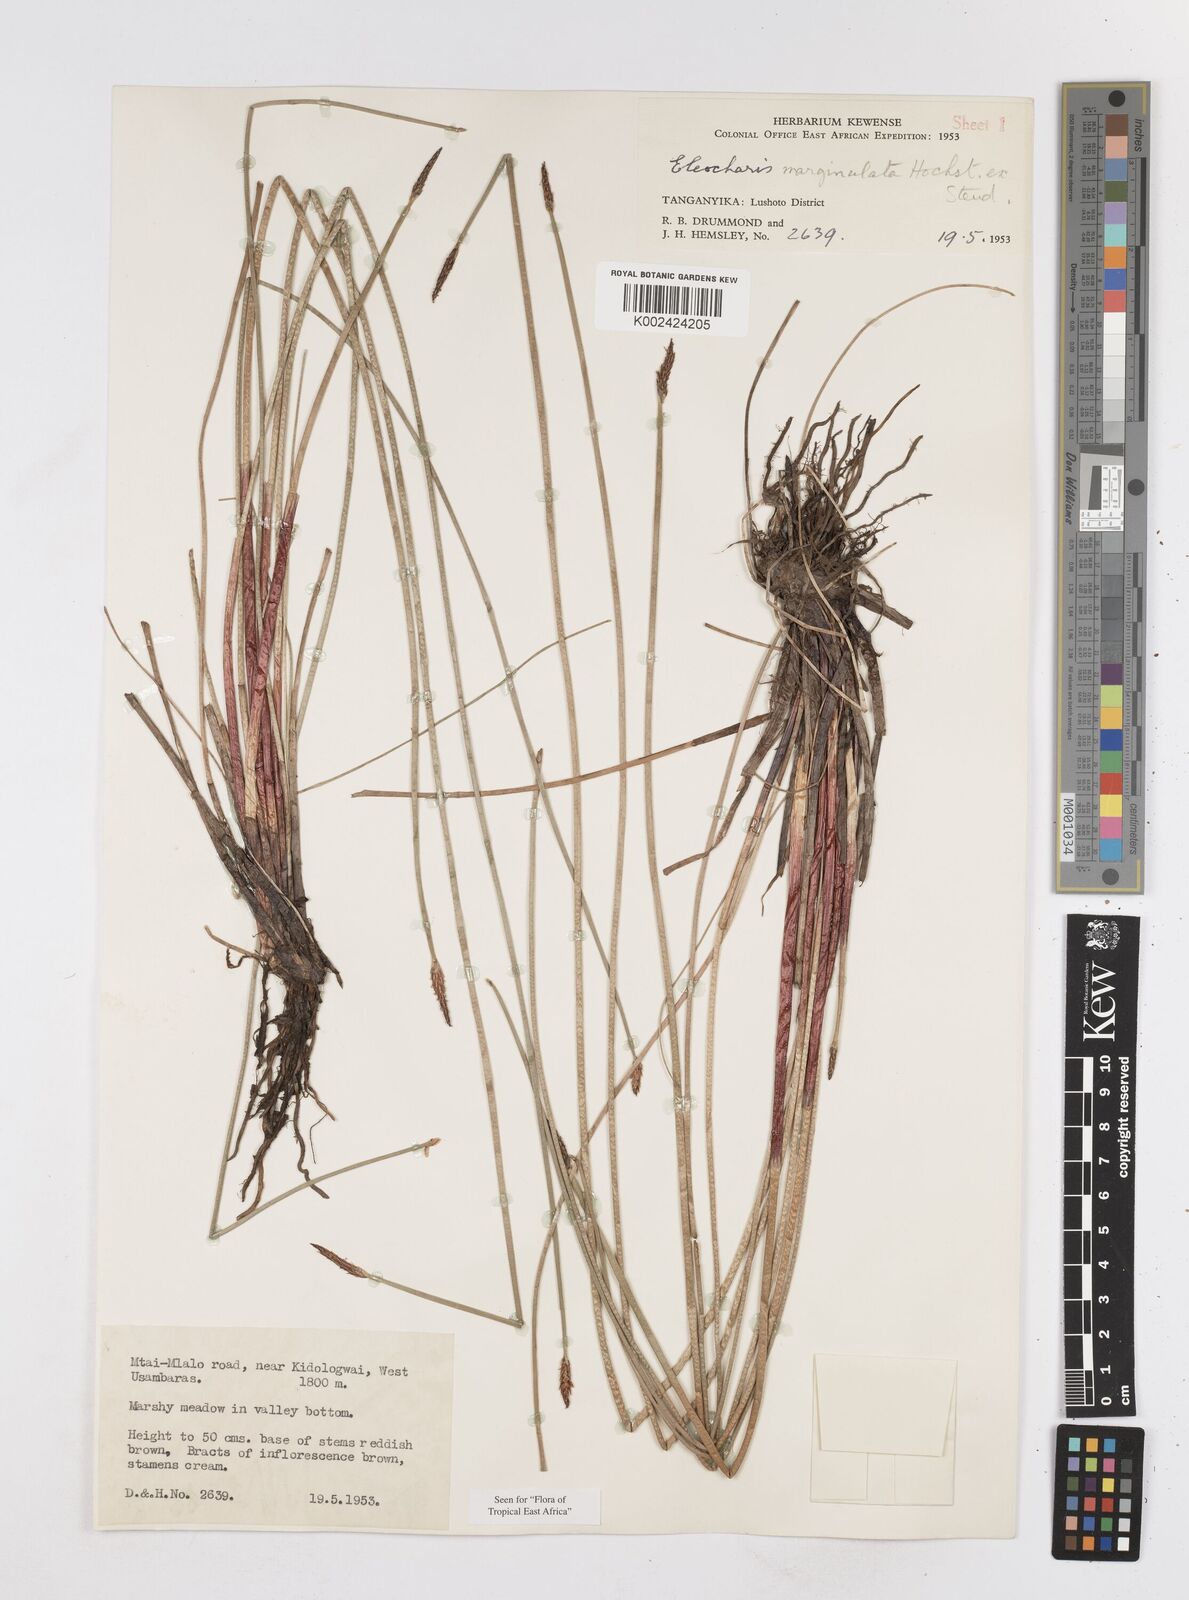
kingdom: Plantae
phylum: Tracheophyta
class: Liliopsida
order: Poales
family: Cyperaceae
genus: Eleocharis
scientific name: Eleocharis marginulata
